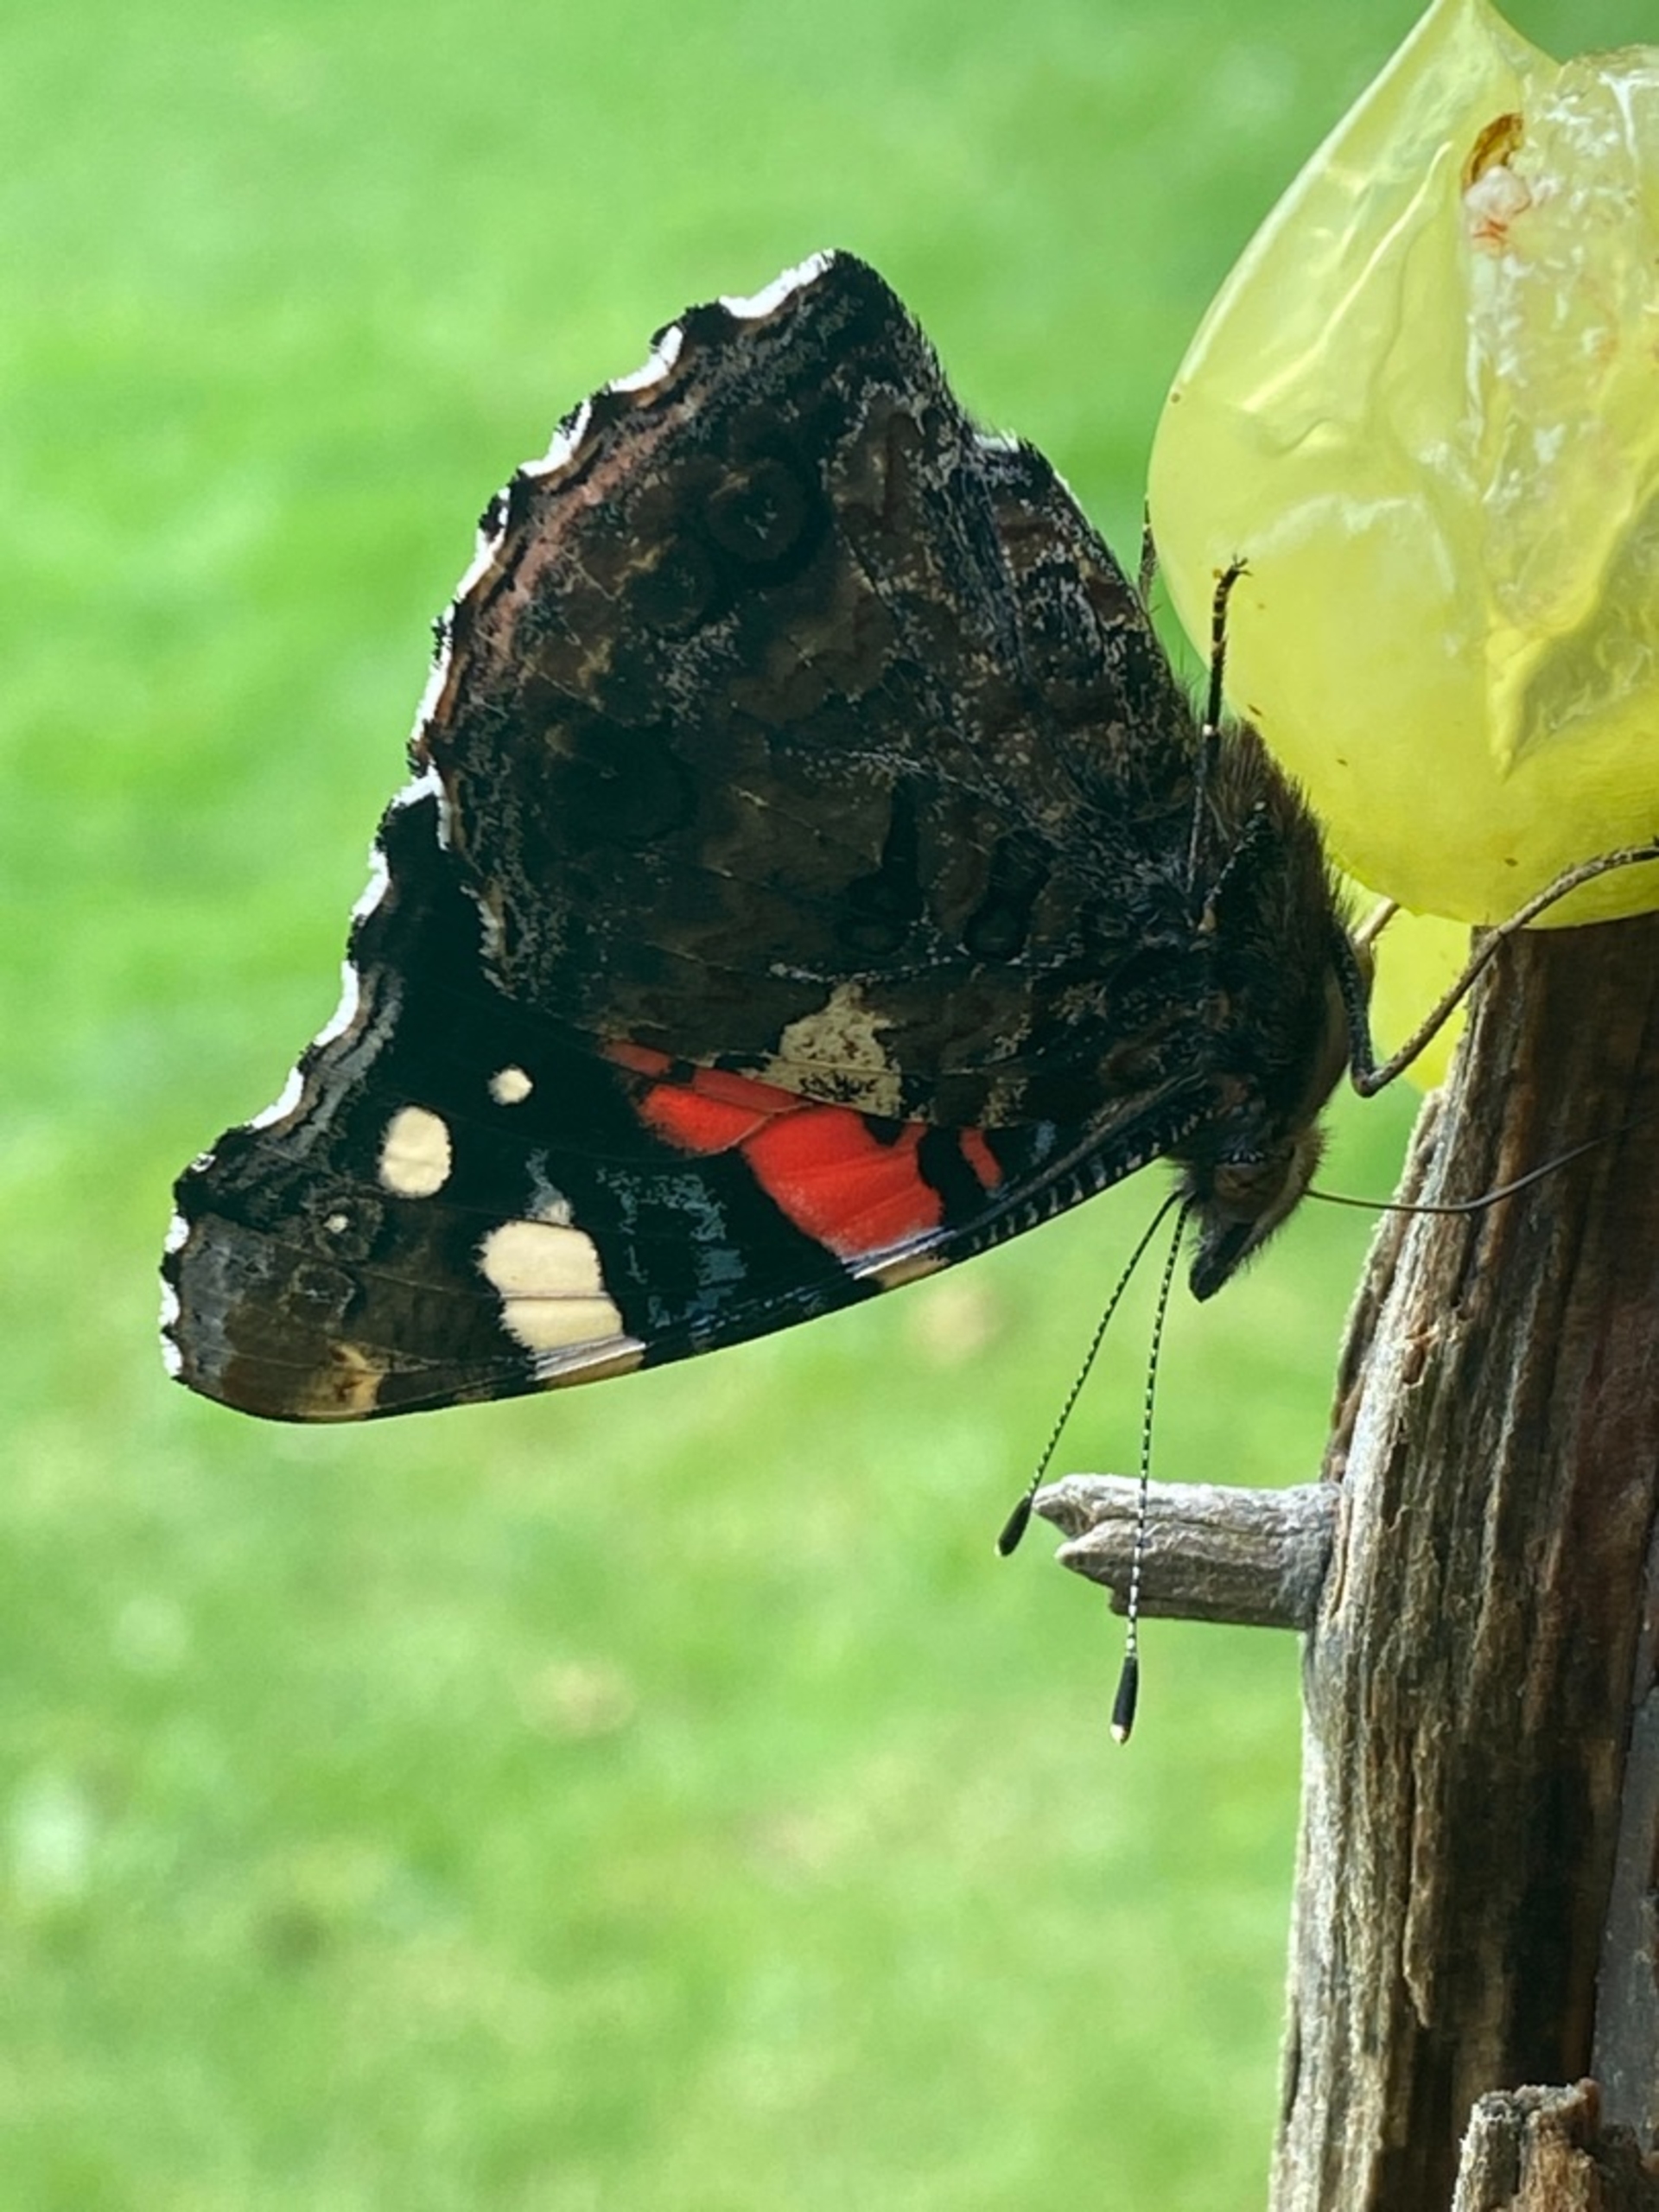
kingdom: Animalia
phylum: Arthropoda
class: Insecta
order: Lepidoptera
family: Nymphalidae
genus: Vanessa
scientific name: Vanessa atalanta
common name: Admiral
